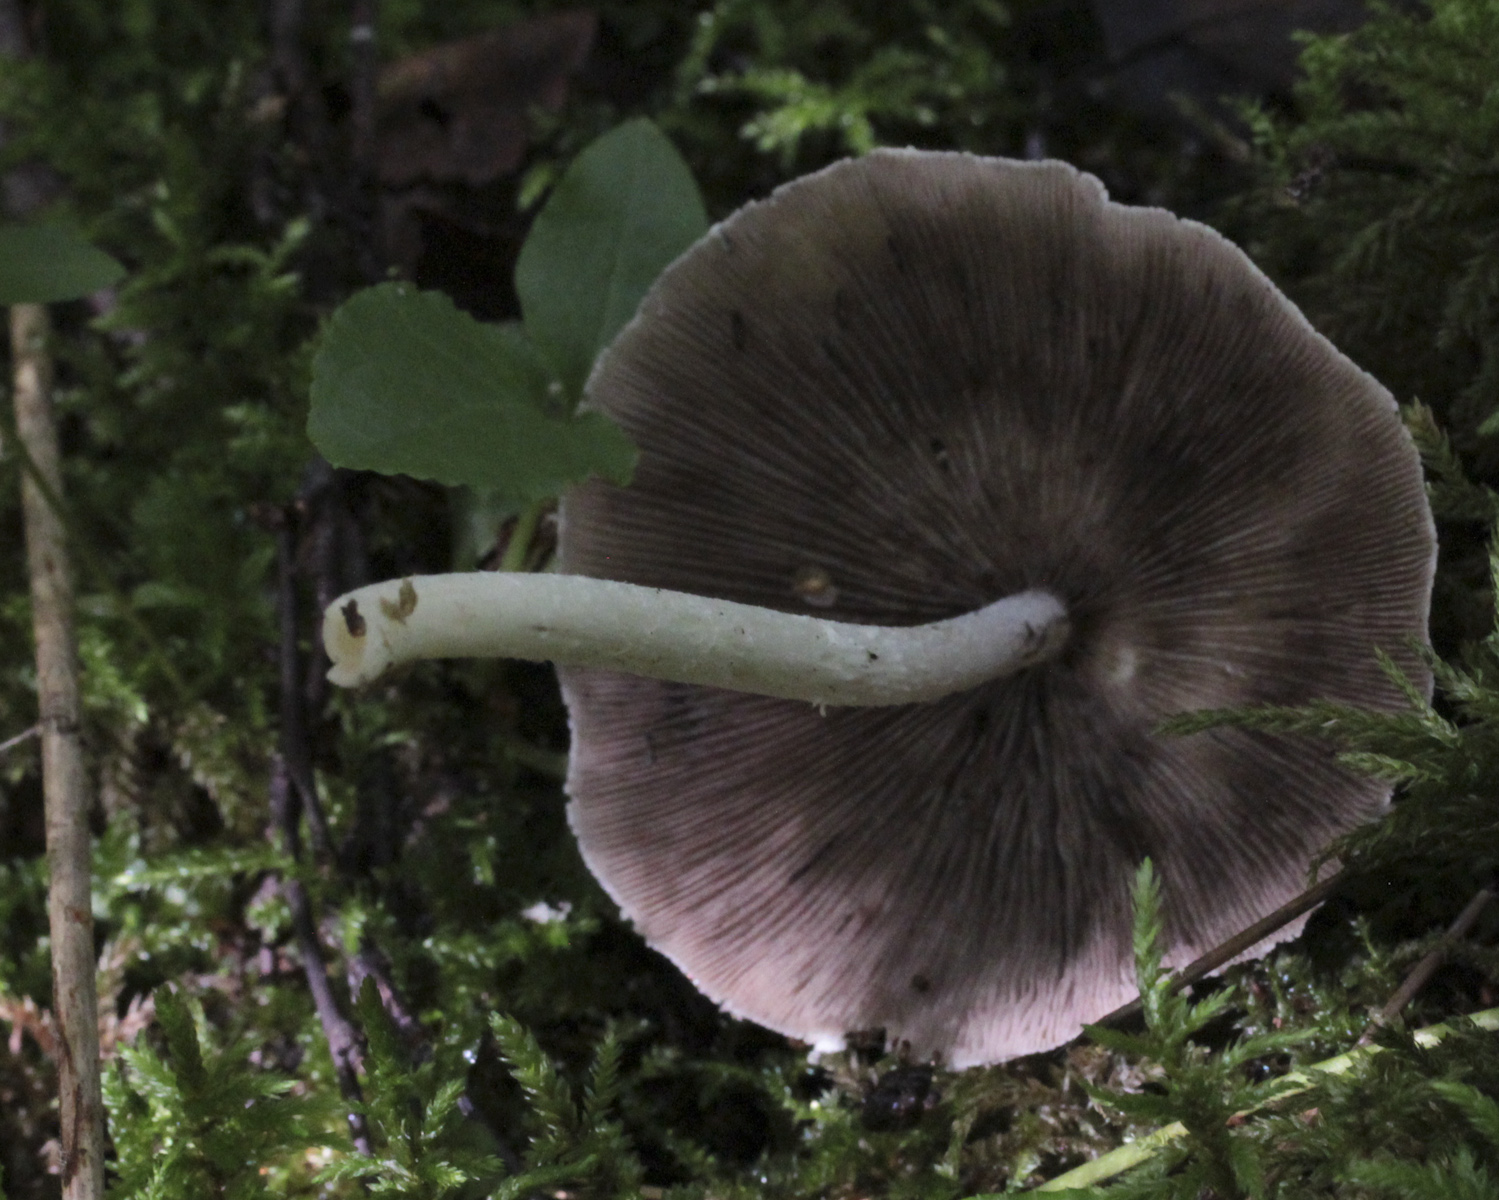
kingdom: Fungi
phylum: Basidiomycota
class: Agaricomycetes
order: Agaricales
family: Psathyrellaceae
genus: Candolleomyces
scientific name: Candolleomyces candolleanus
